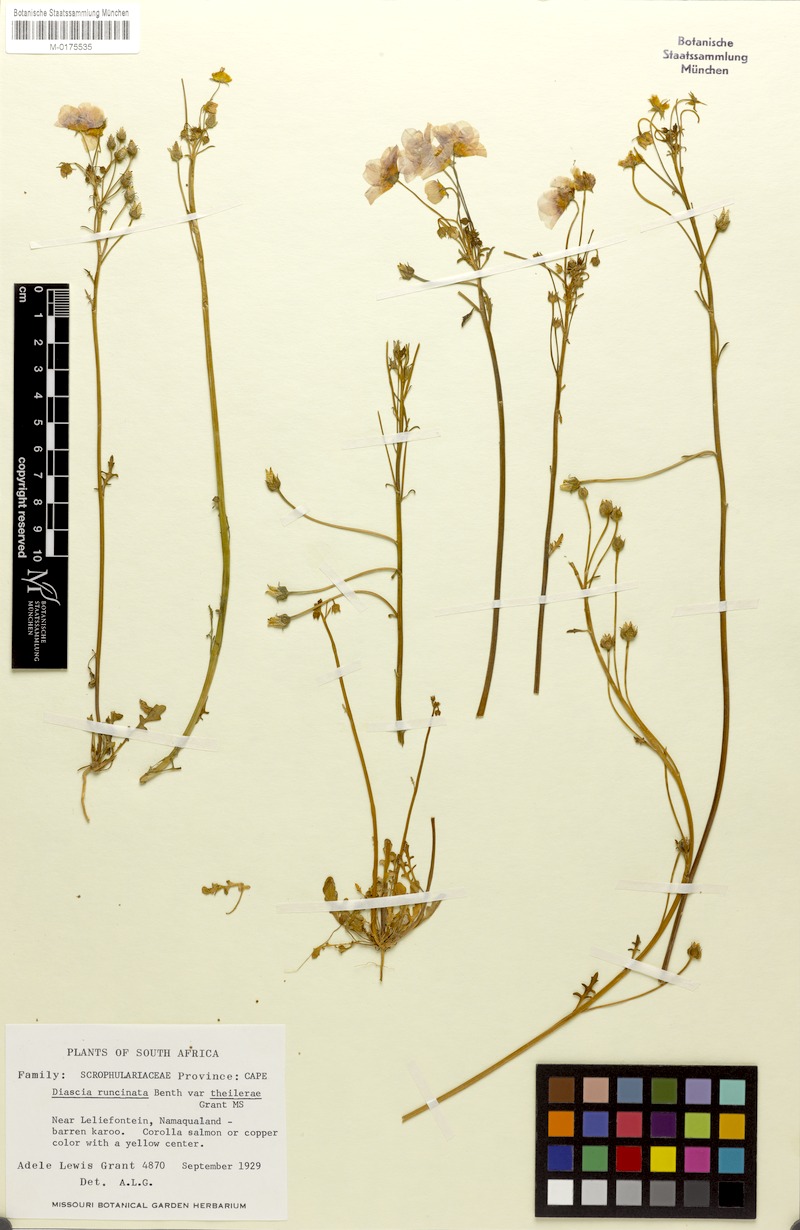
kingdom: Plantae
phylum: Tracheophyta
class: Magnoliopsida
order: Lamiales
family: Scrophulariaceae
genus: Diascia
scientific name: Diascia runcinata
